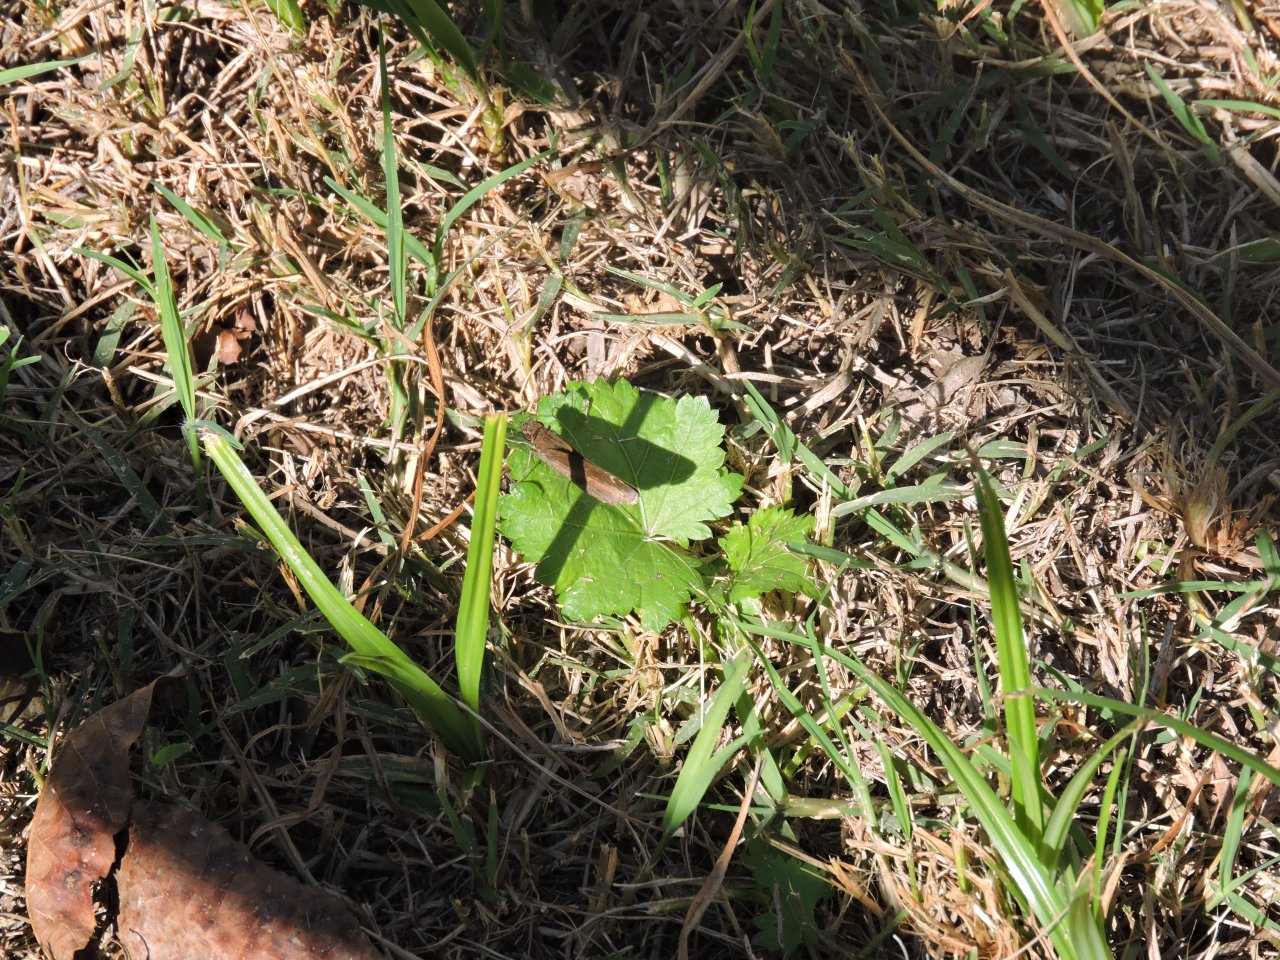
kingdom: Animalia
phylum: Arthropoda
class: Insecta
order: Lepidoptera
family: Hesperiidae
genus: Lerema
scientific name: Lerema accius
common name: Clouded Skipper
